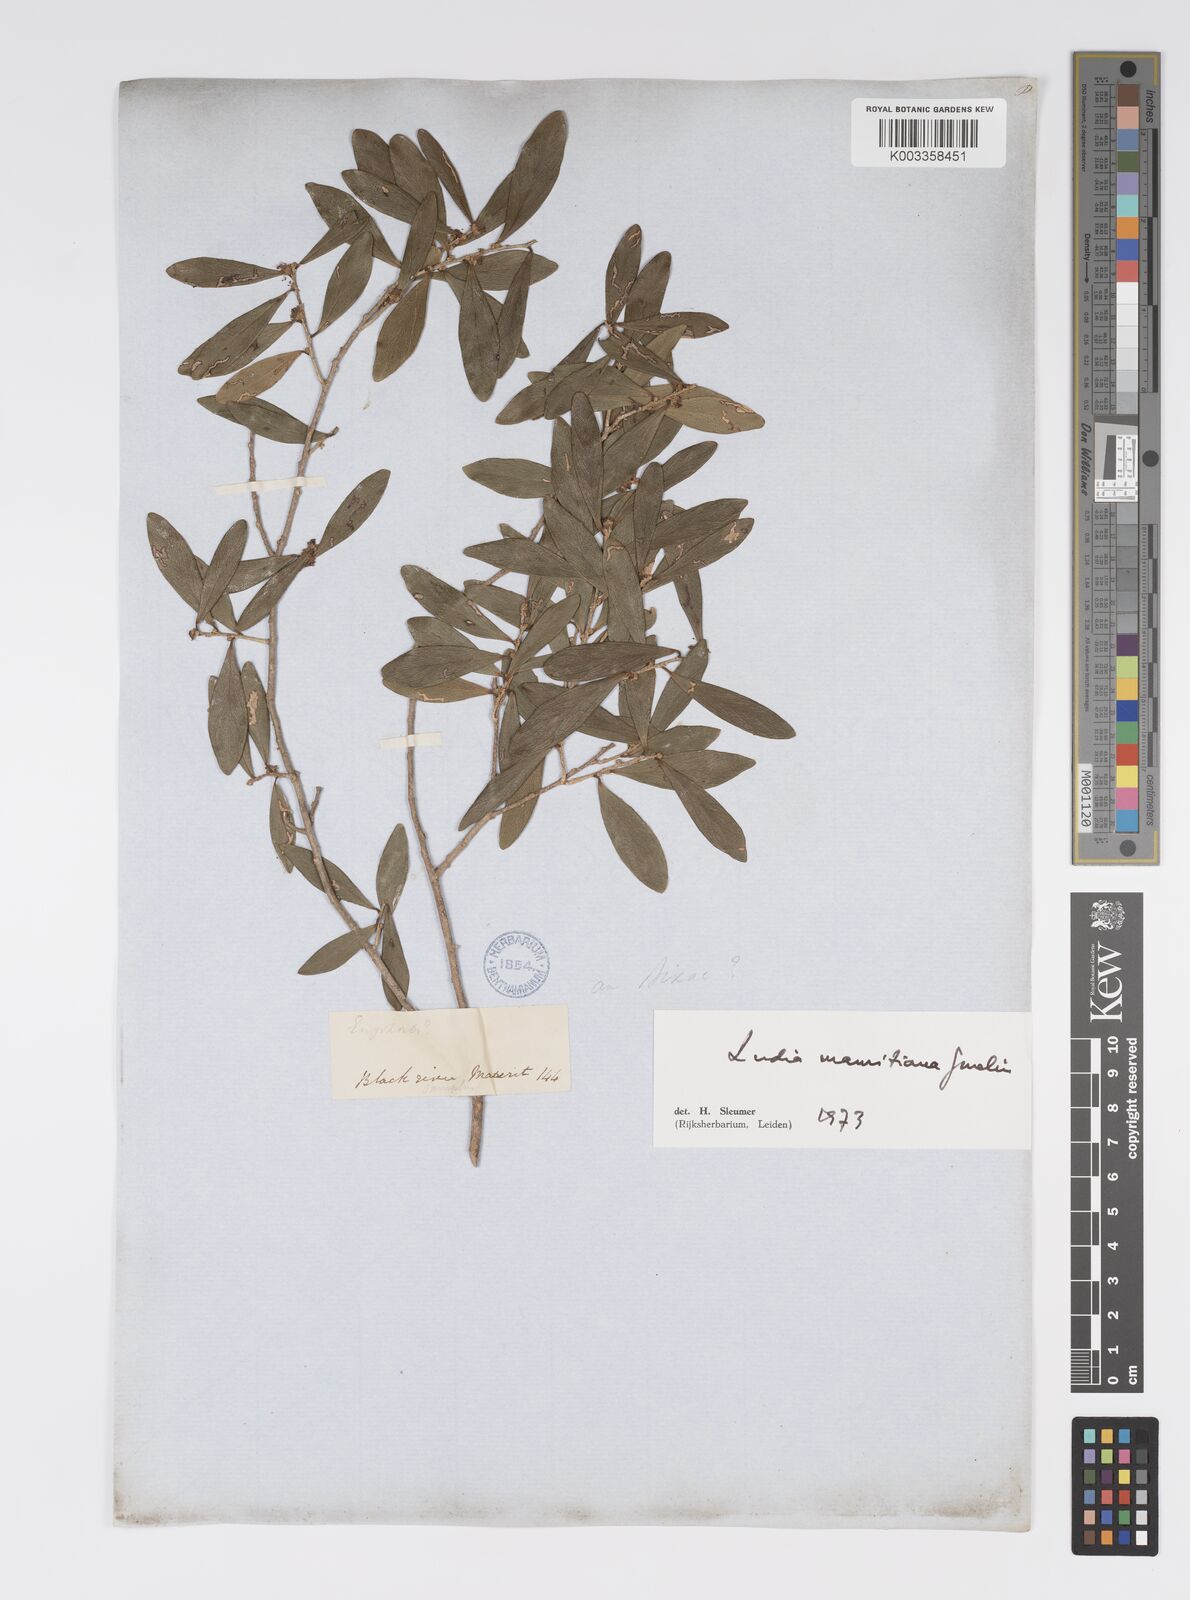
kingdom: Plantae
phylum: Tracheophyta
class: Magnoliopsida
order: Malpighiales
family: Salicaceae
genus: Ludia
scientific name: Ludia mauritiana
